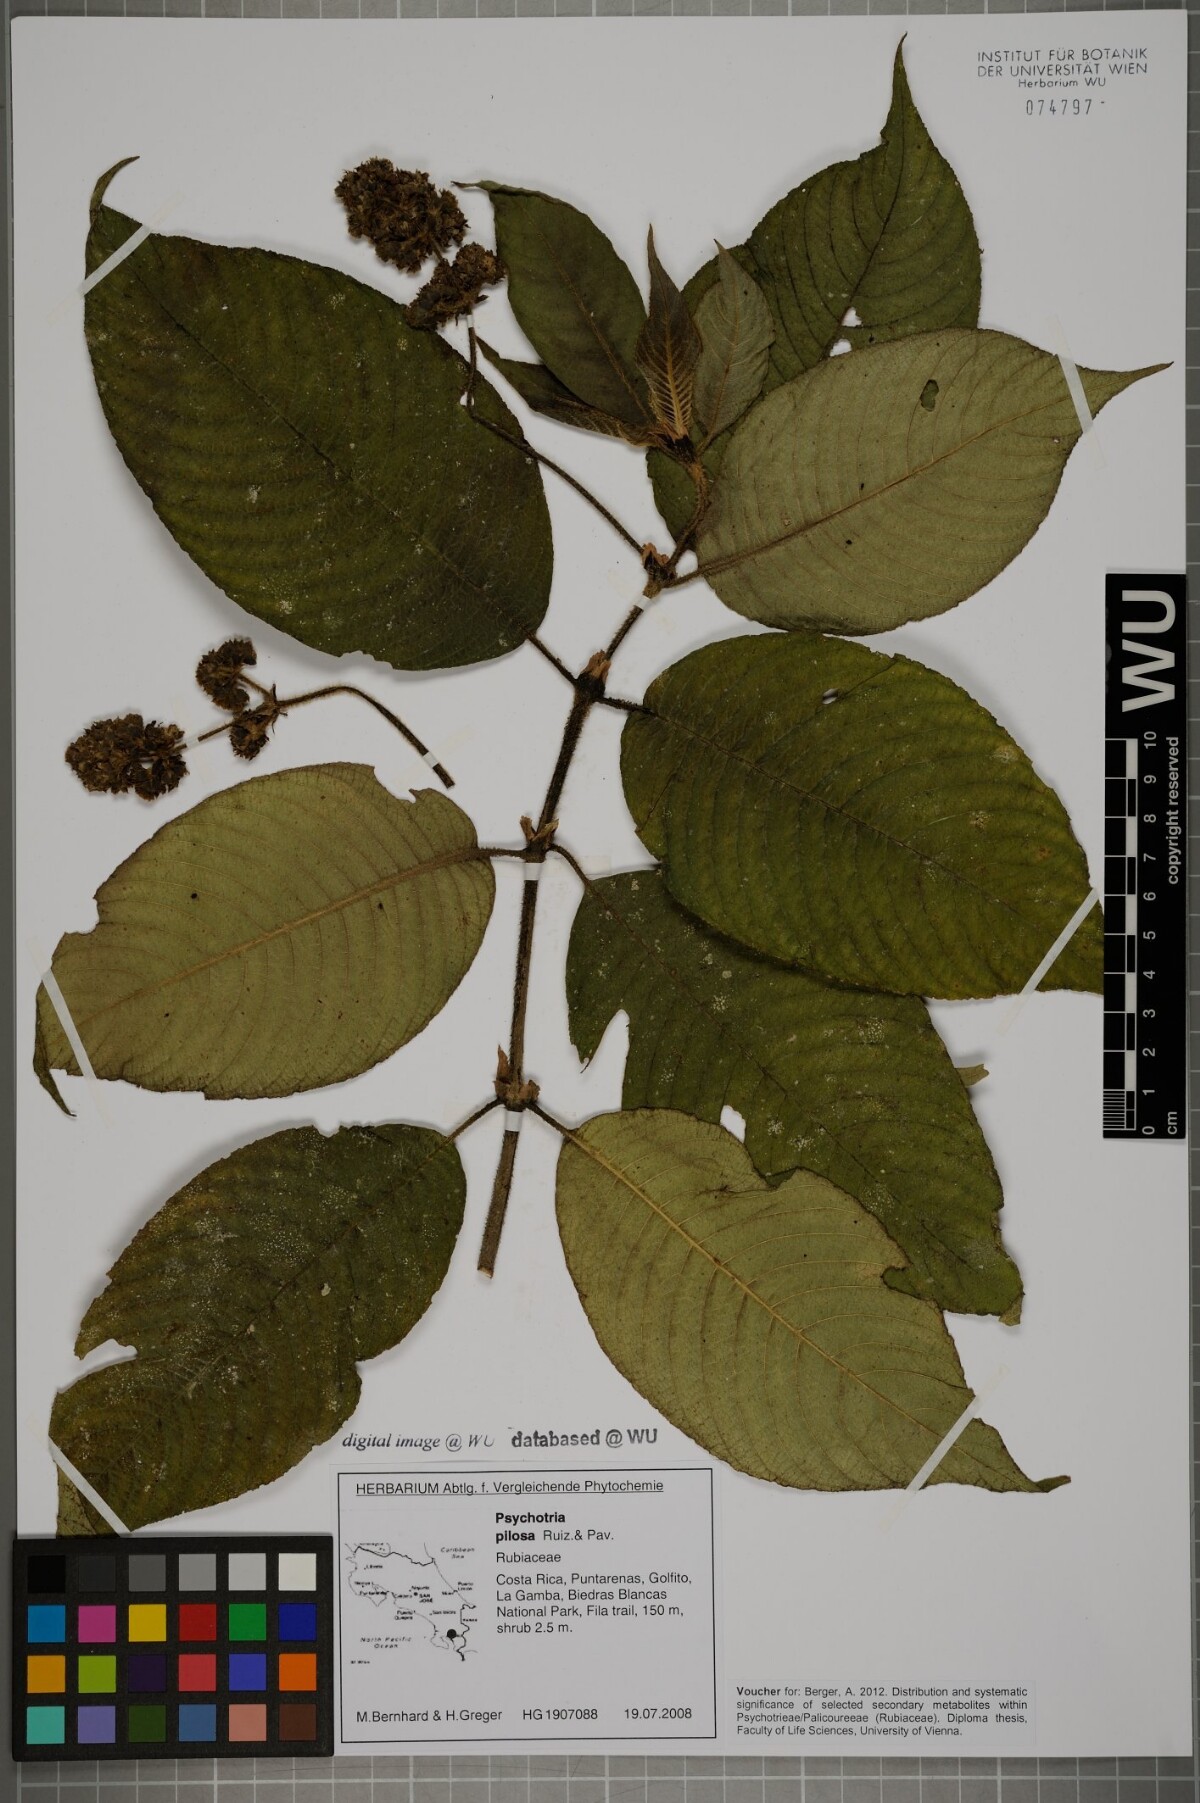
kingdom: Plantae
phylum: Tracheophyta
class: Magnoliopsida
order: Gentianales
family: Rubiaceae
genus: Palicourea
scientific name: Palicourea pilosa
